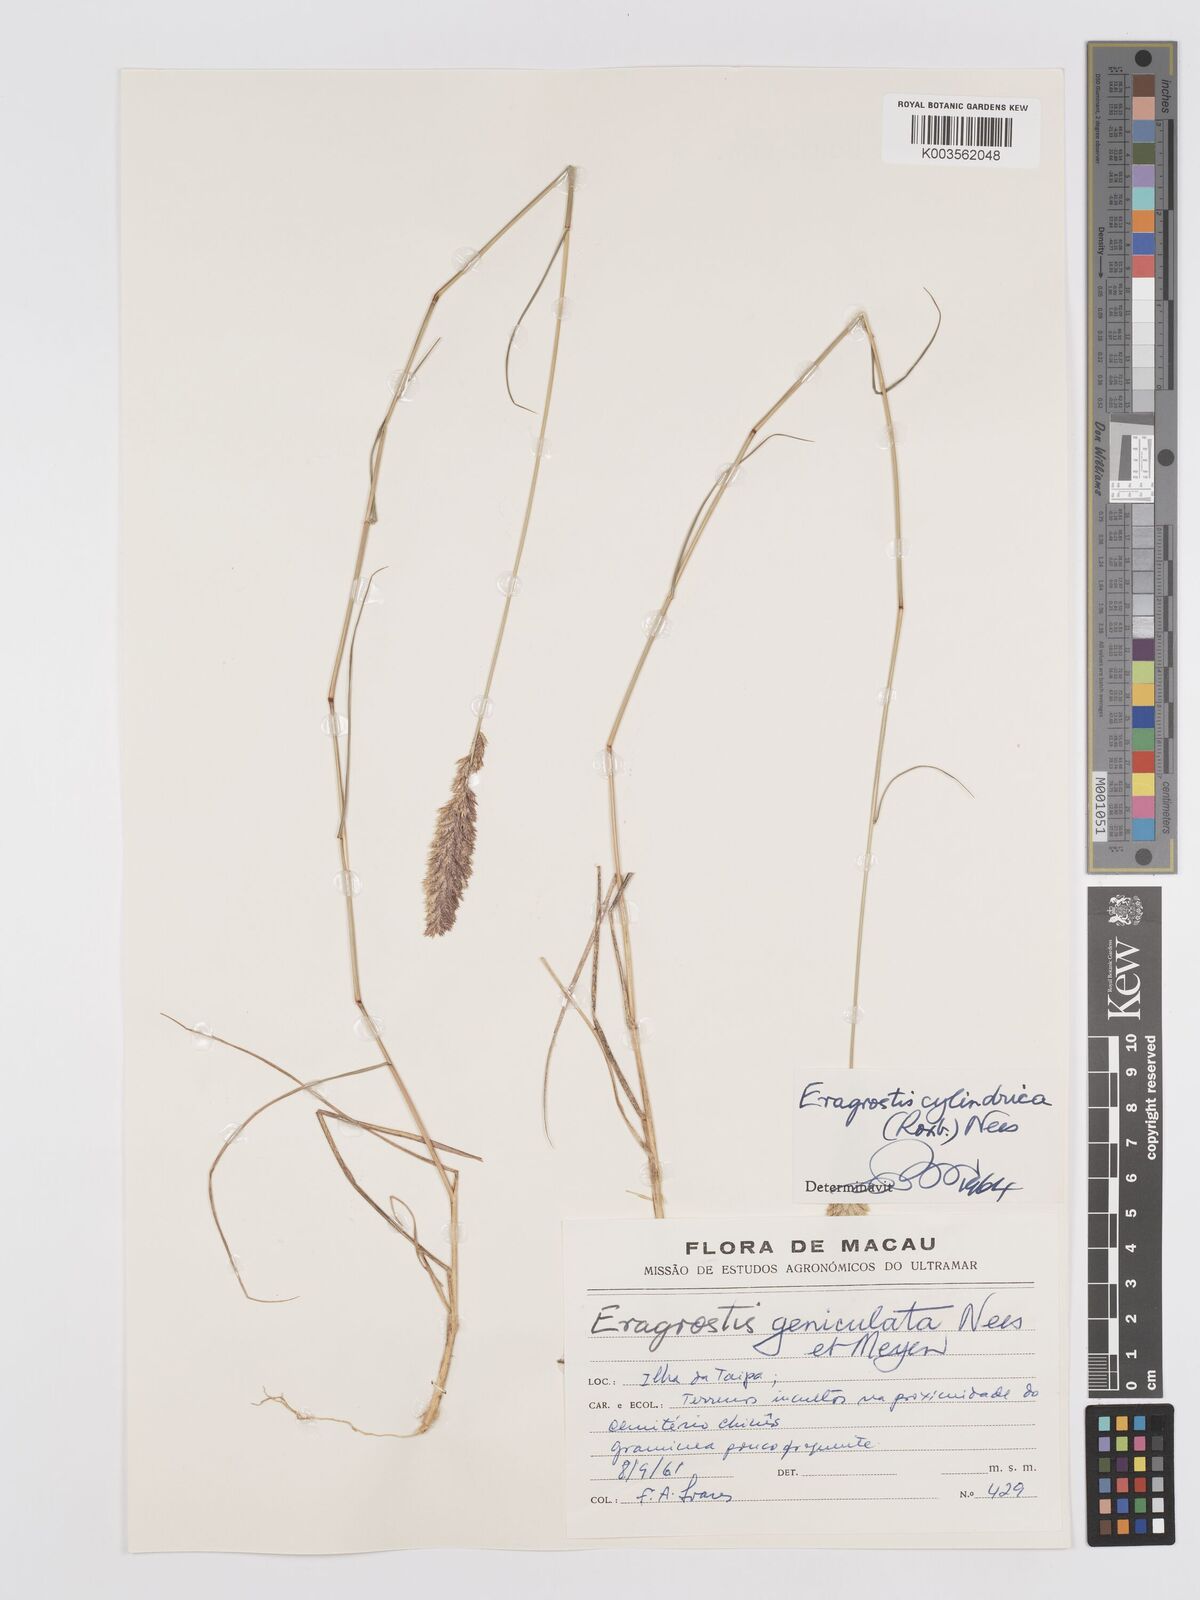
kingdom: Plantae
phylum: Tracheophyta
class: Liliopsida
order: Poales
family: Poaceae
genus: Eragrostis
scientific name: Eragrostis cylindrica
